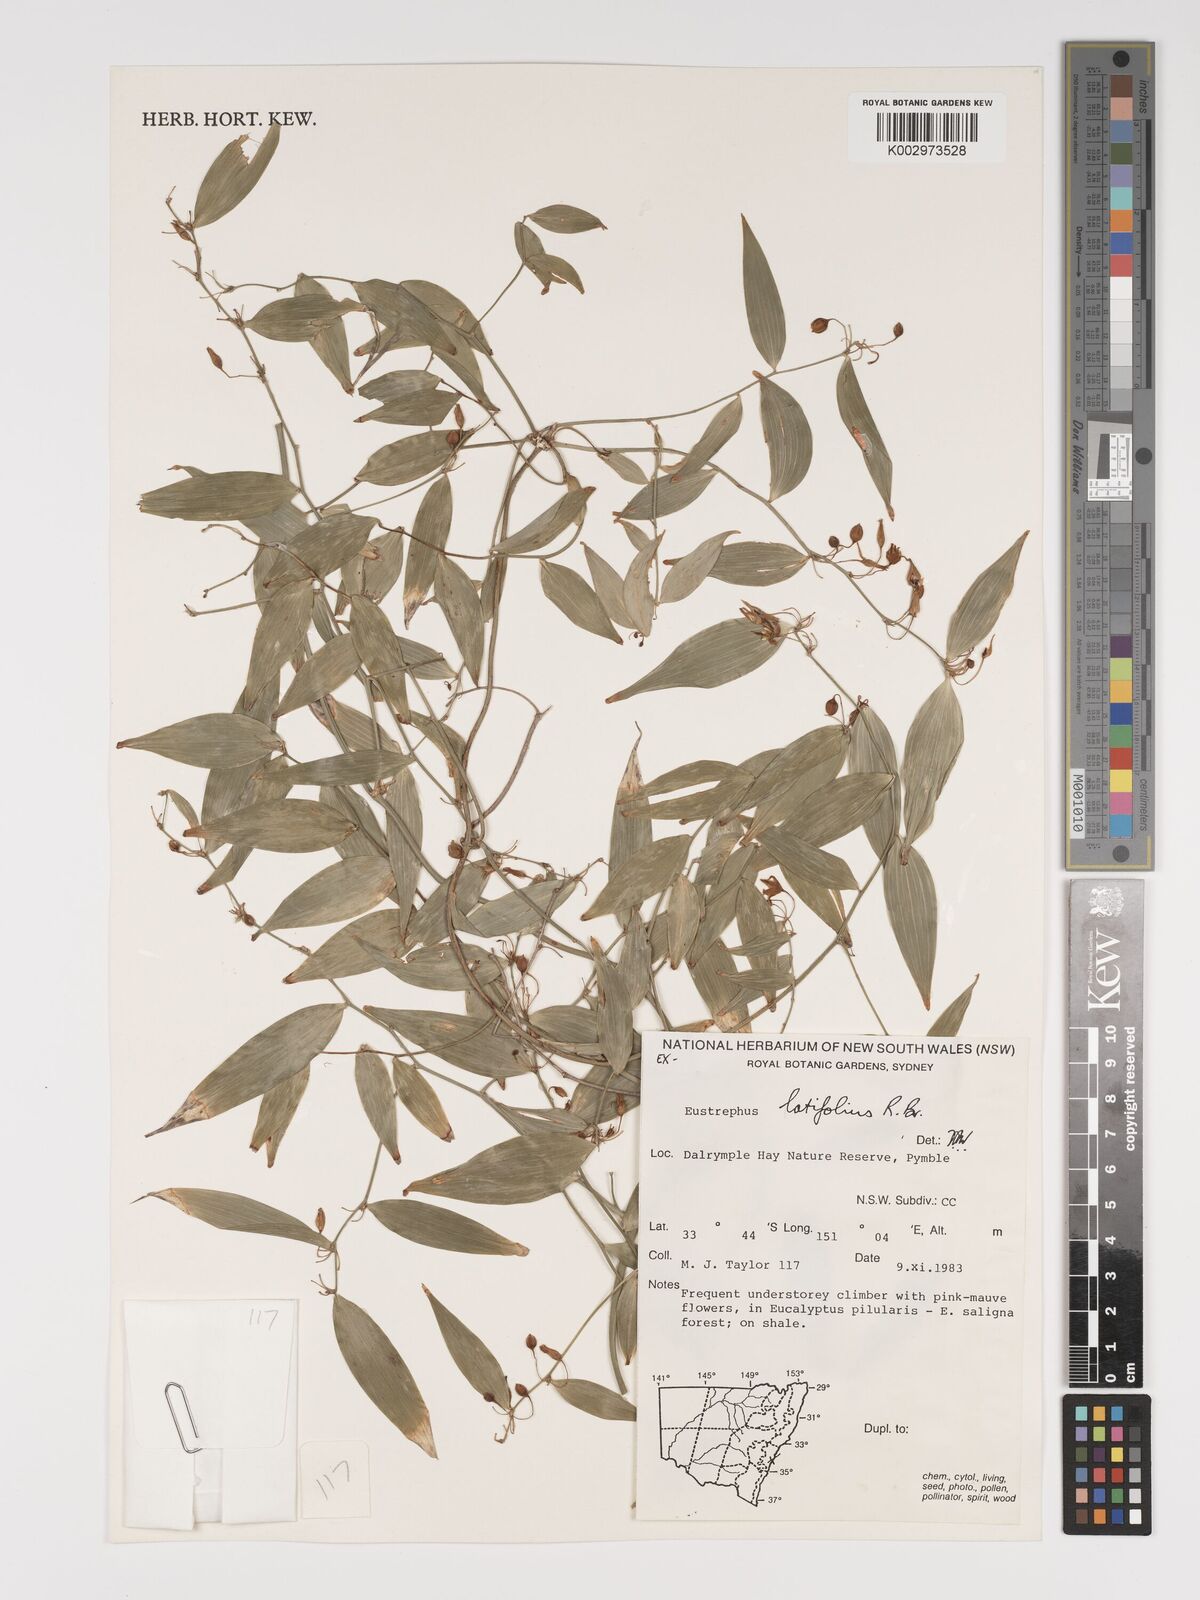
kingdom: Plantae
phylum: Tracheophyta
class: Liliopsida
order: Asparagales
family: Asparagaceae
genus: Eustrephus
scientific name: Eustrephus latifolius
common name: Orangevine
